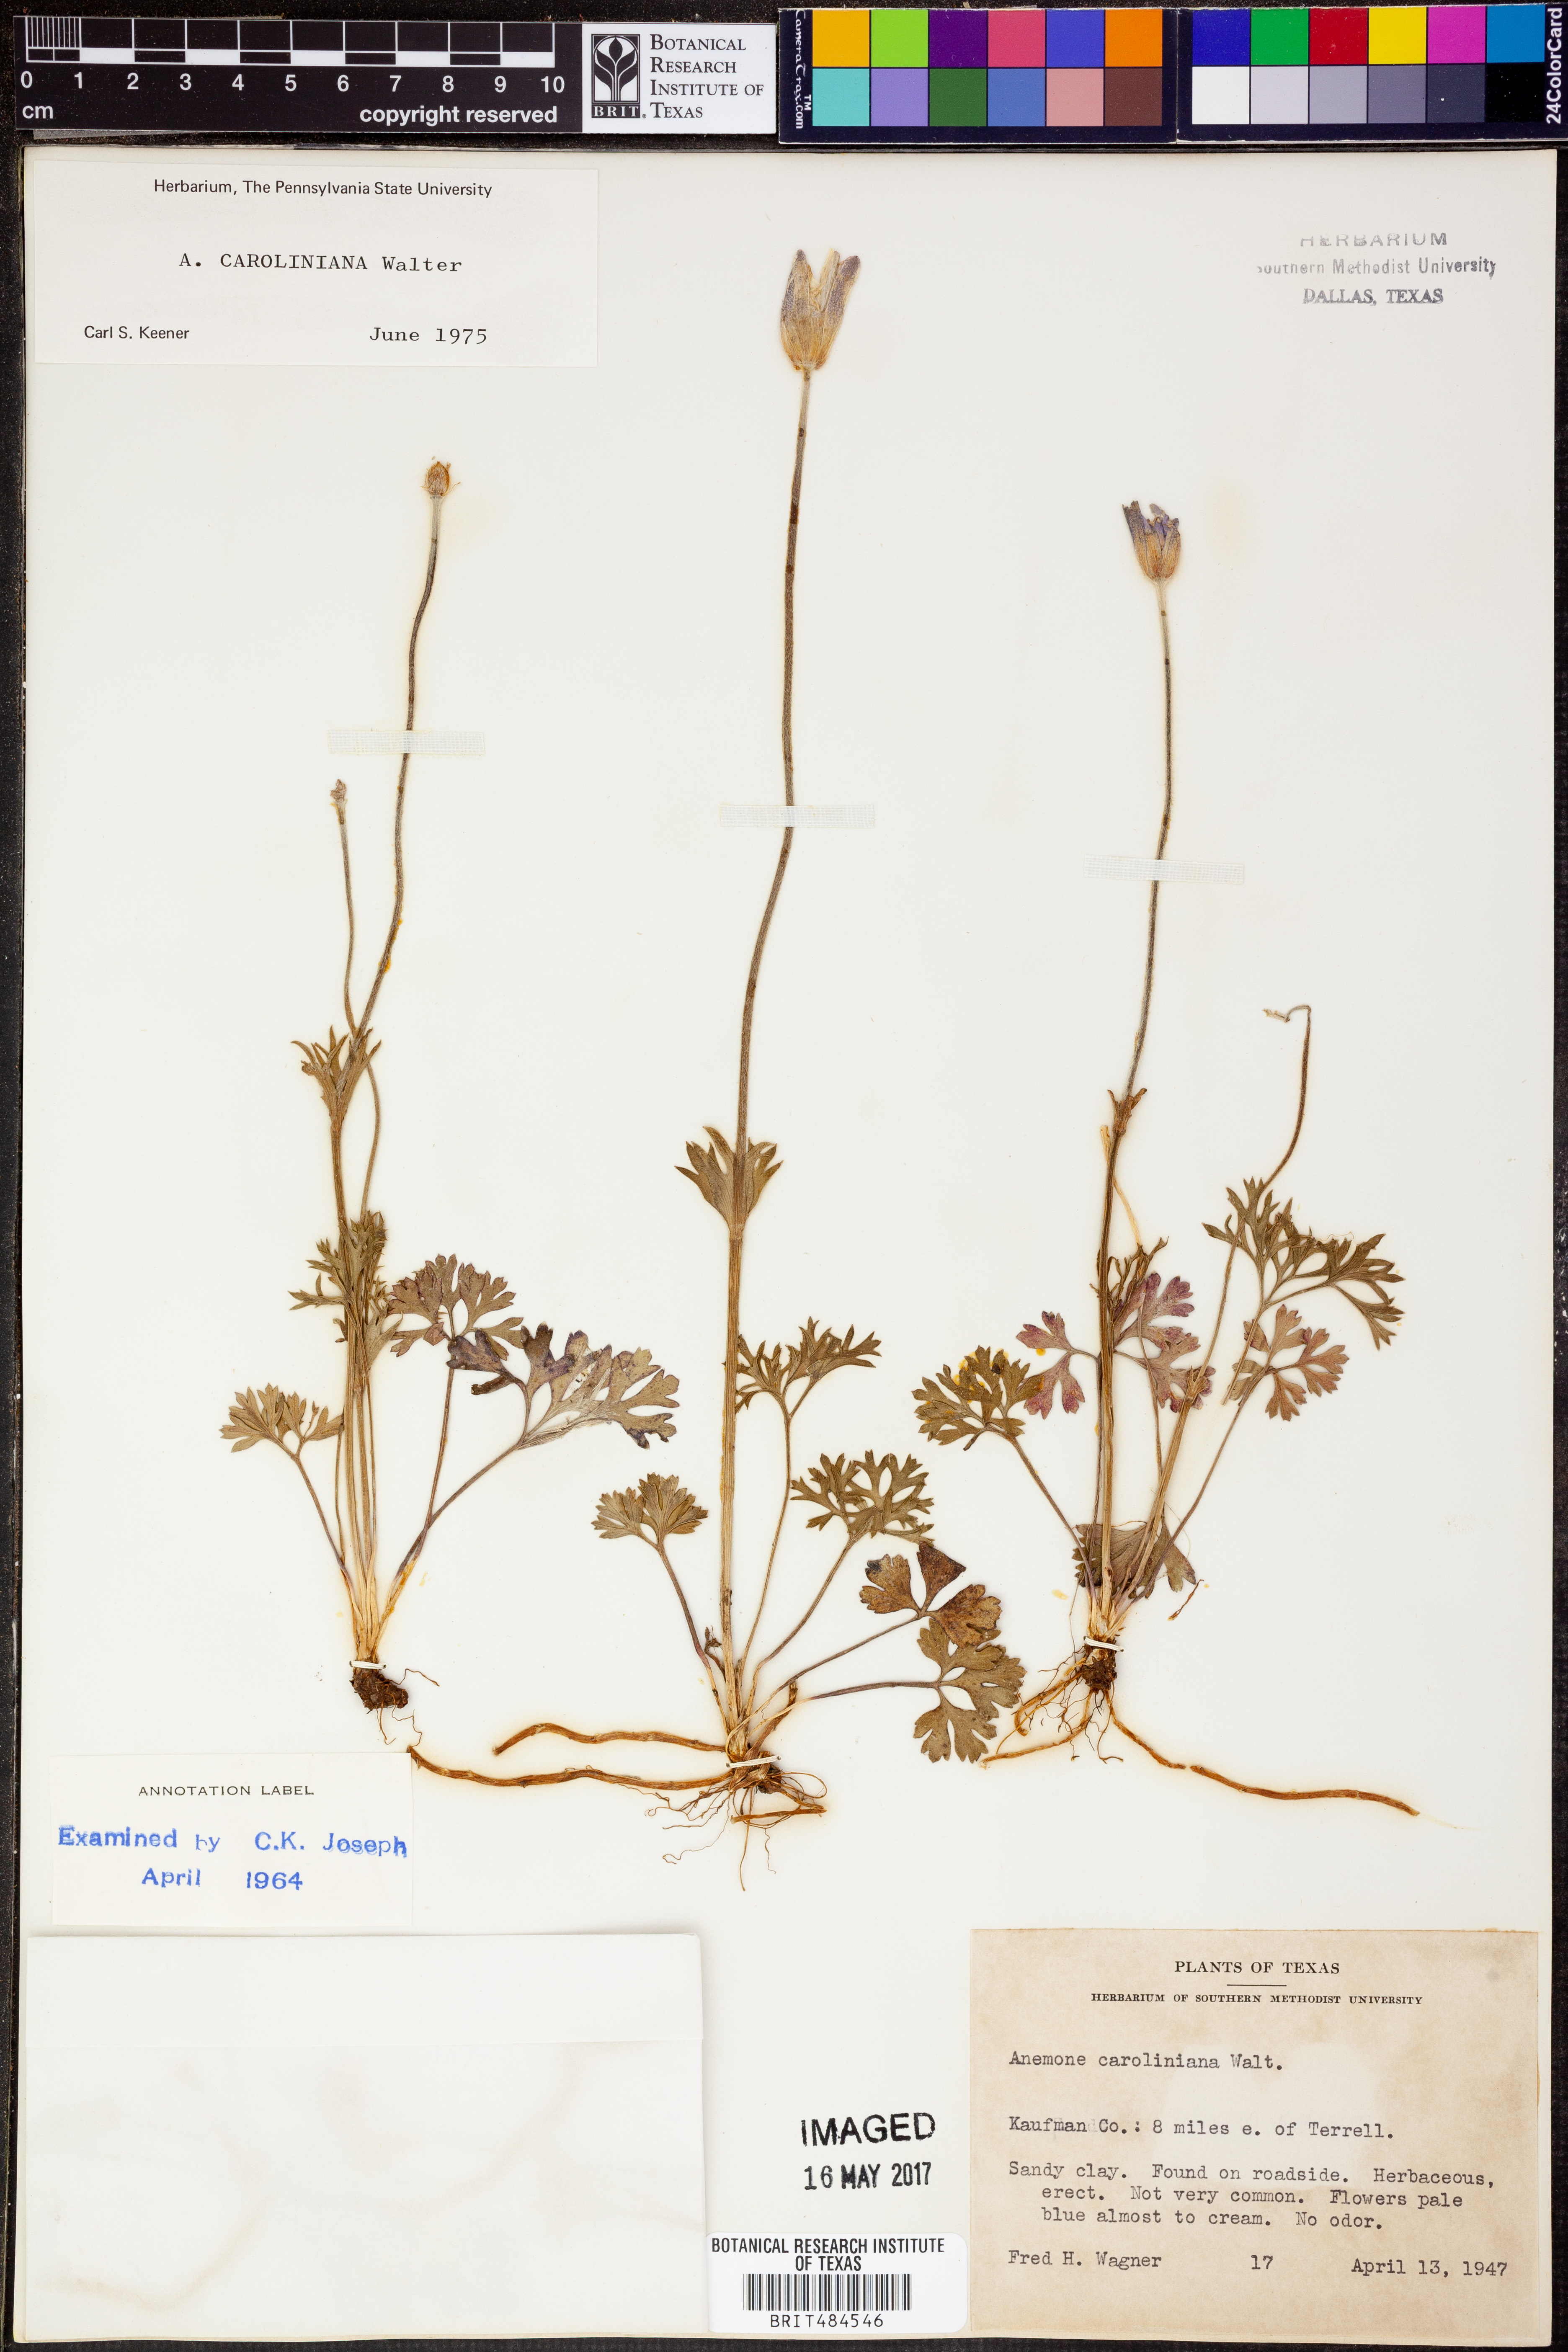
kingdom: Plantae
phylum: Tracheophyta
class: Magnoliopsida
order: Ranunculales
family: Ranunculaceae
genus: Anemone
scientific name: Anemone caroliniana
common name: Carolina anemone
